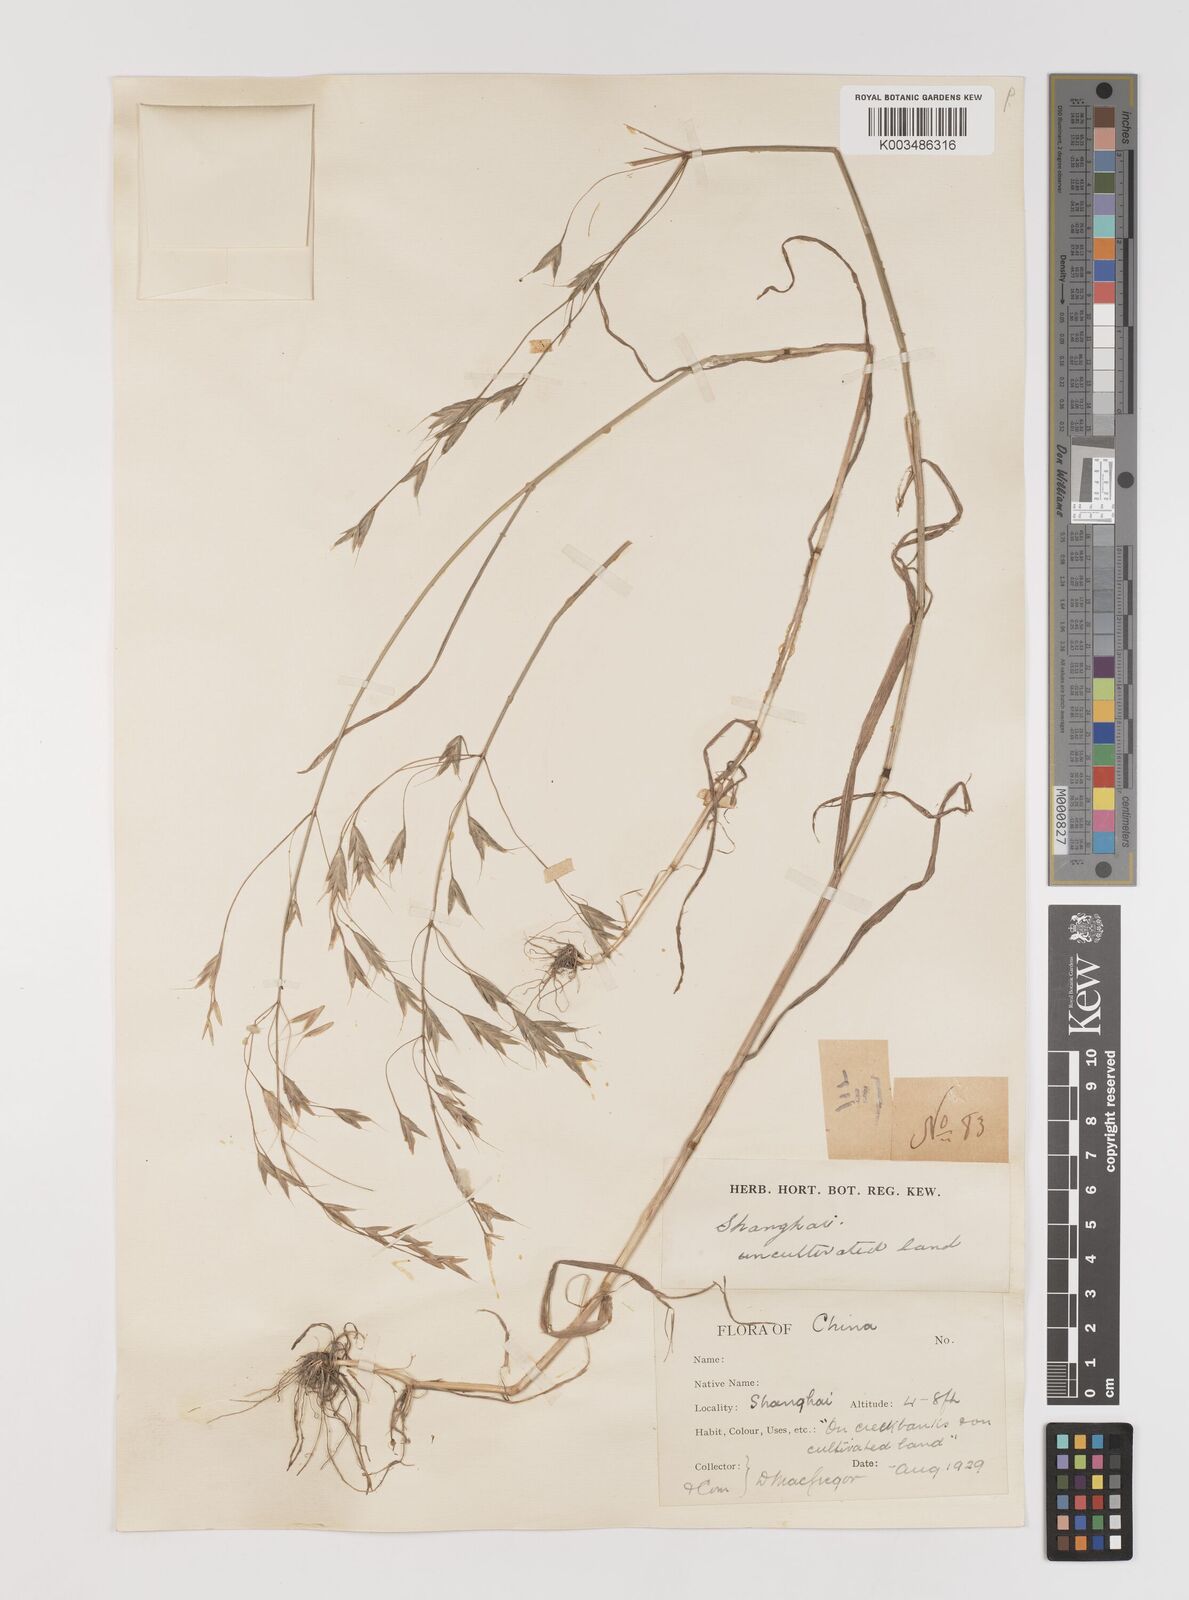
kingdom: Plantae
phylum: Tracheophyta
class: Liliopsida
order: Poales
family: Poaceae
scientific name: Poaceae
